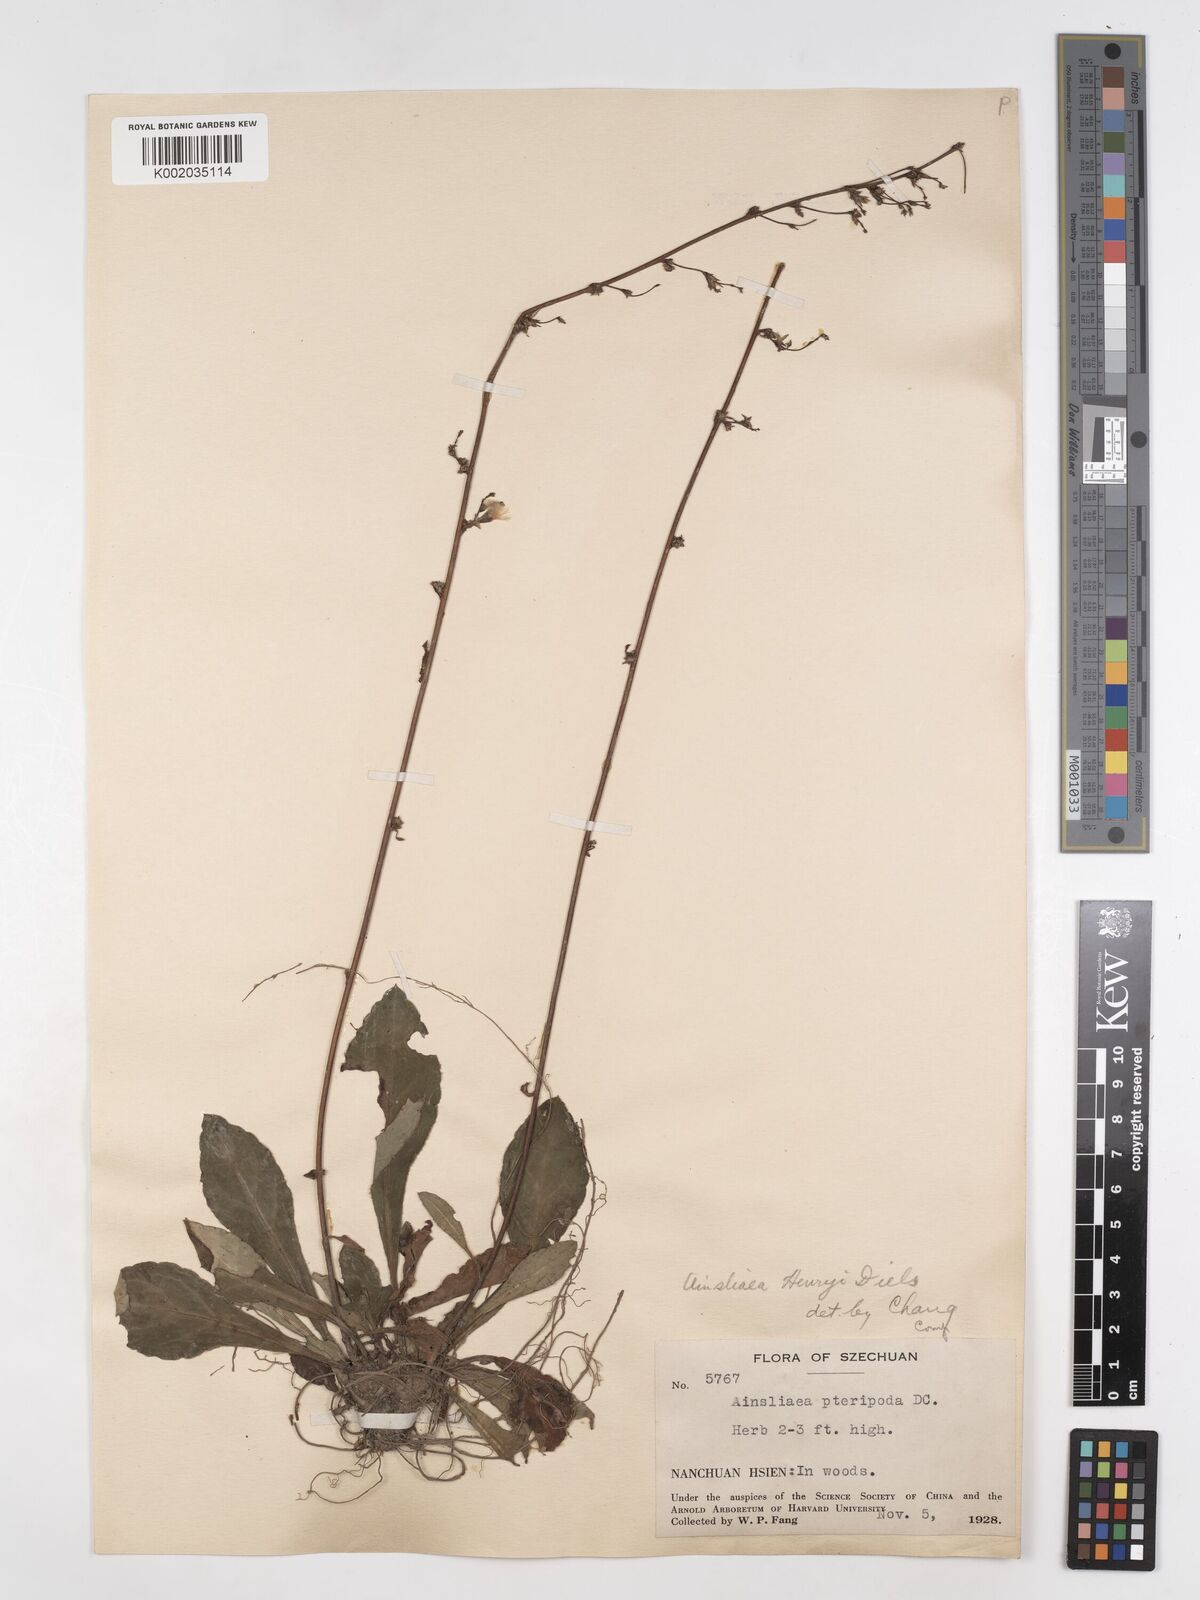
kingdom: Plantae
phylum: Tracheophyta
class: Magnoliopsida
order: Asterales
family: Asteraceae
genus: Ainsliaea
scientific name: Ainsliaea henryi
